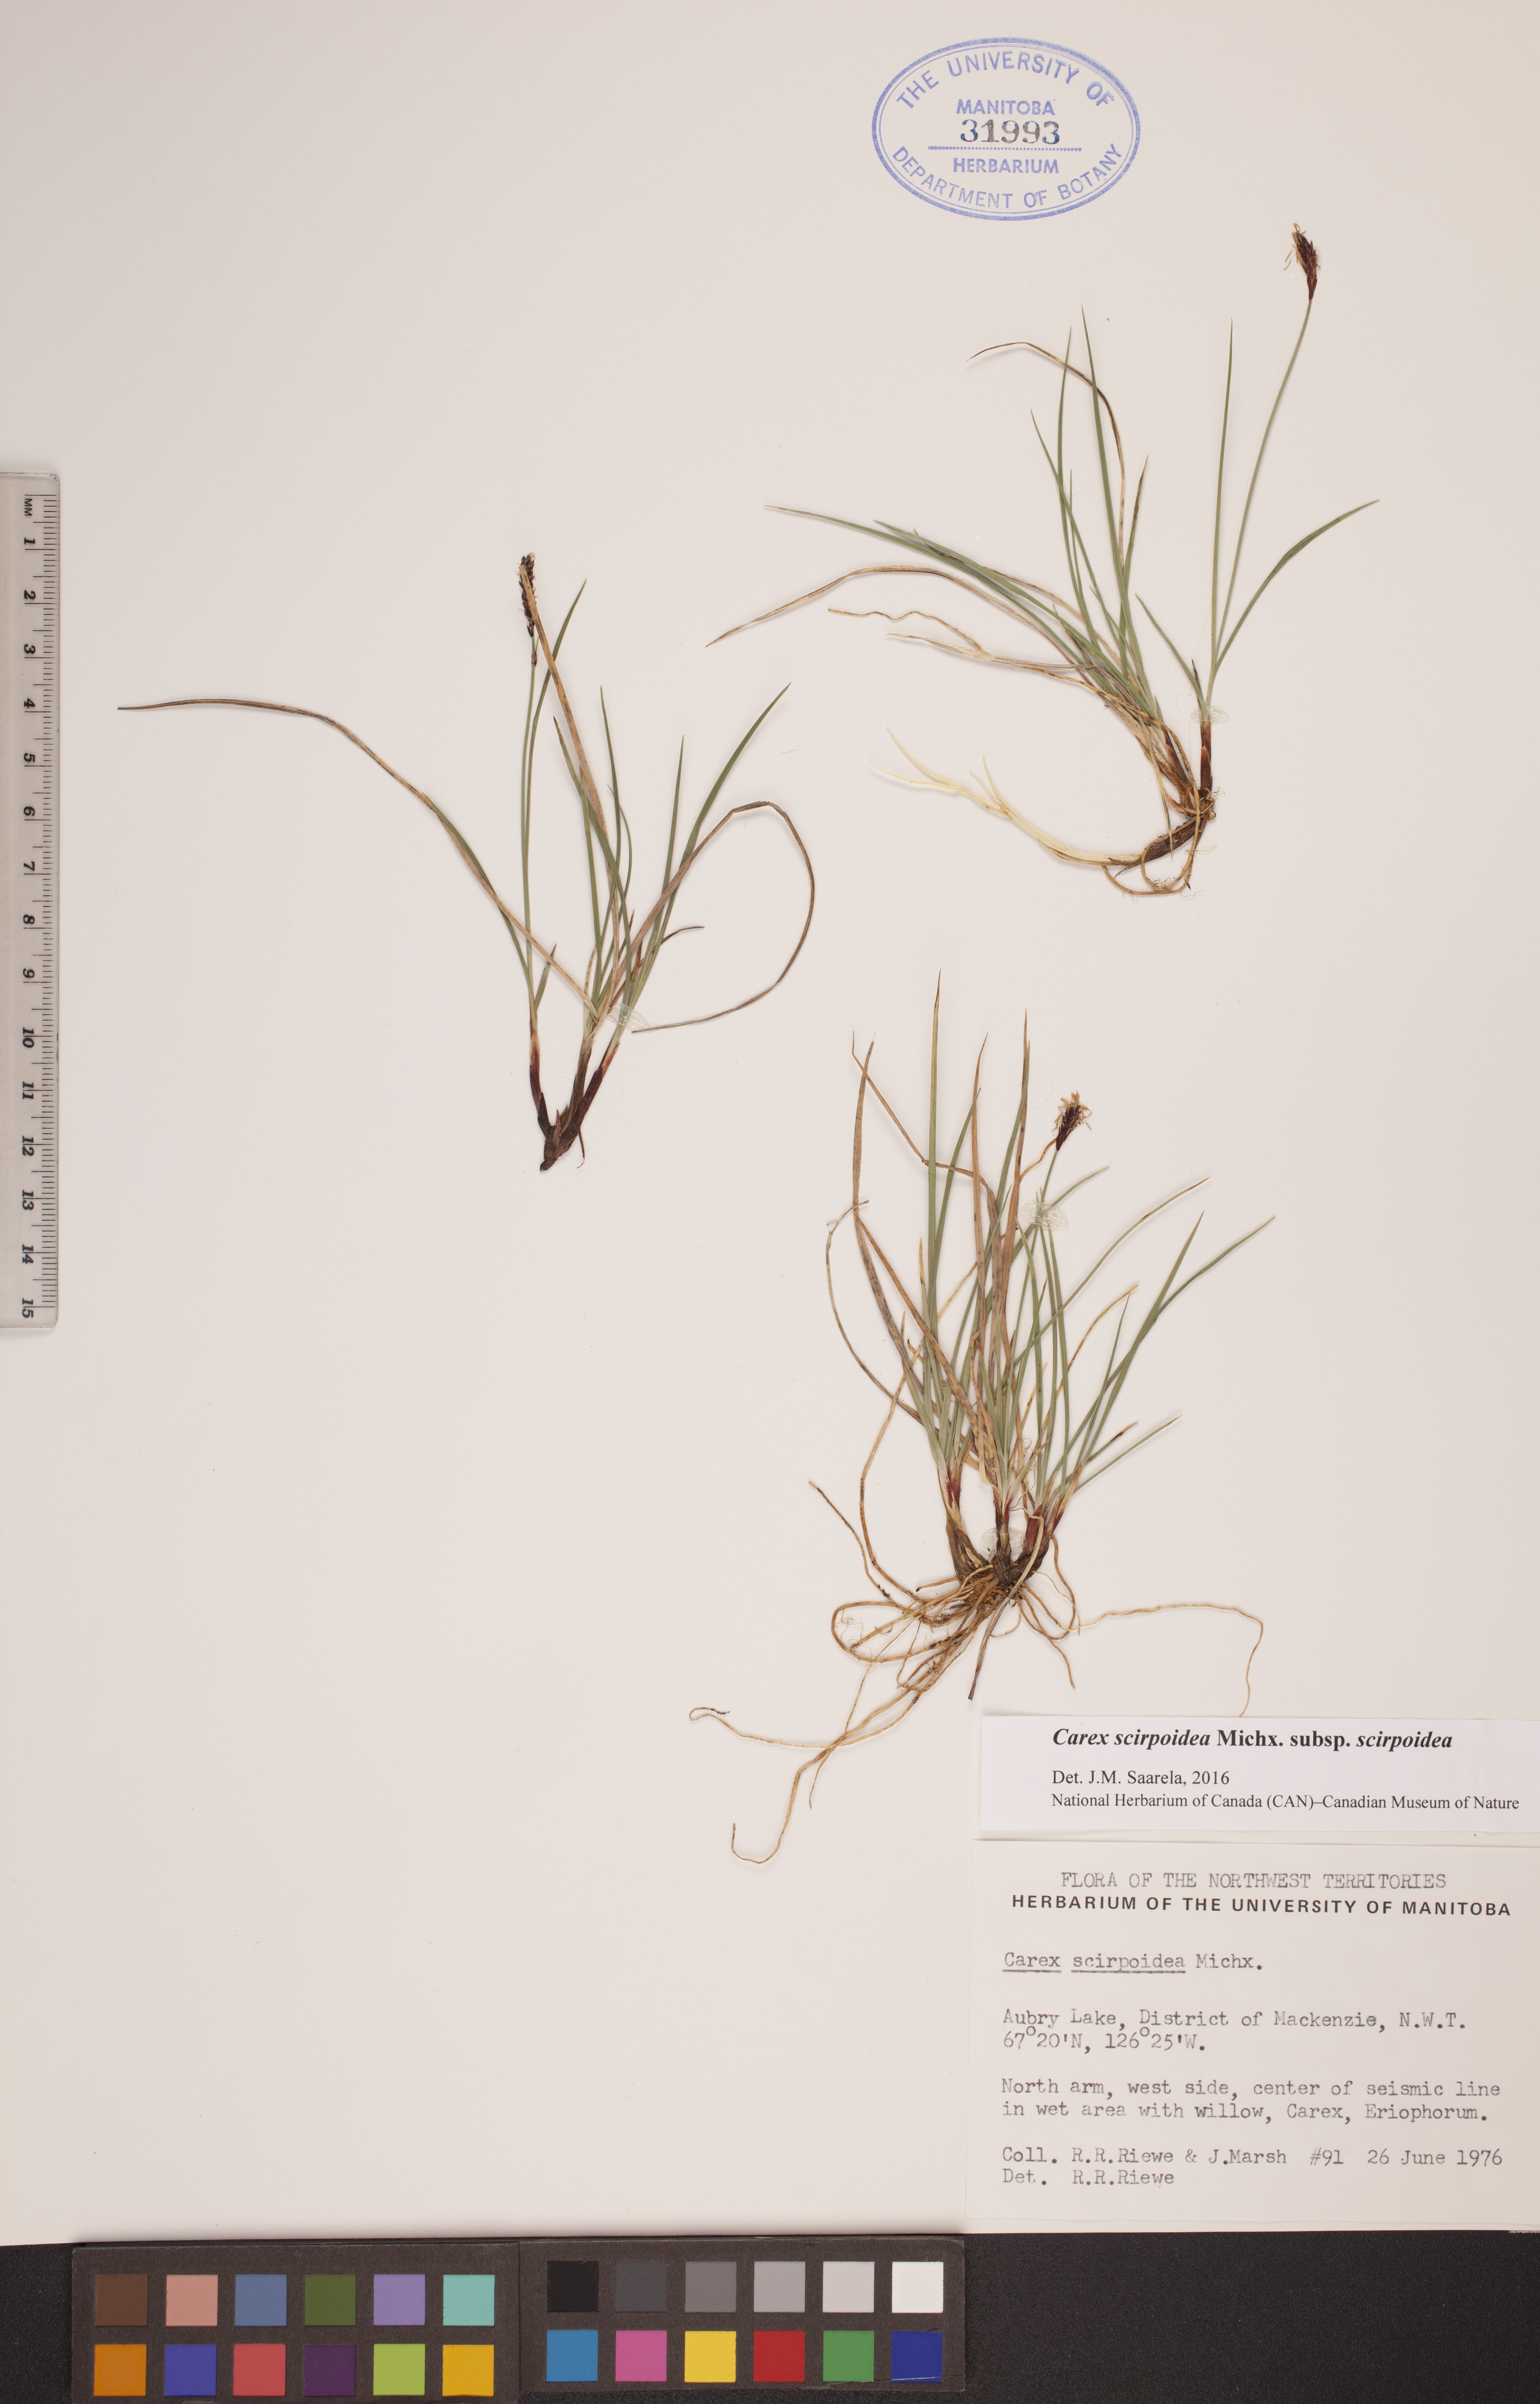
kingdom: Plantae
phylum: Tracheophyta
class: Liliopsida
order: Poales
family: Cyperaceae
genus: Carex
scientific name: Carex scirpoidea
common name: Canada single-spike sedge
